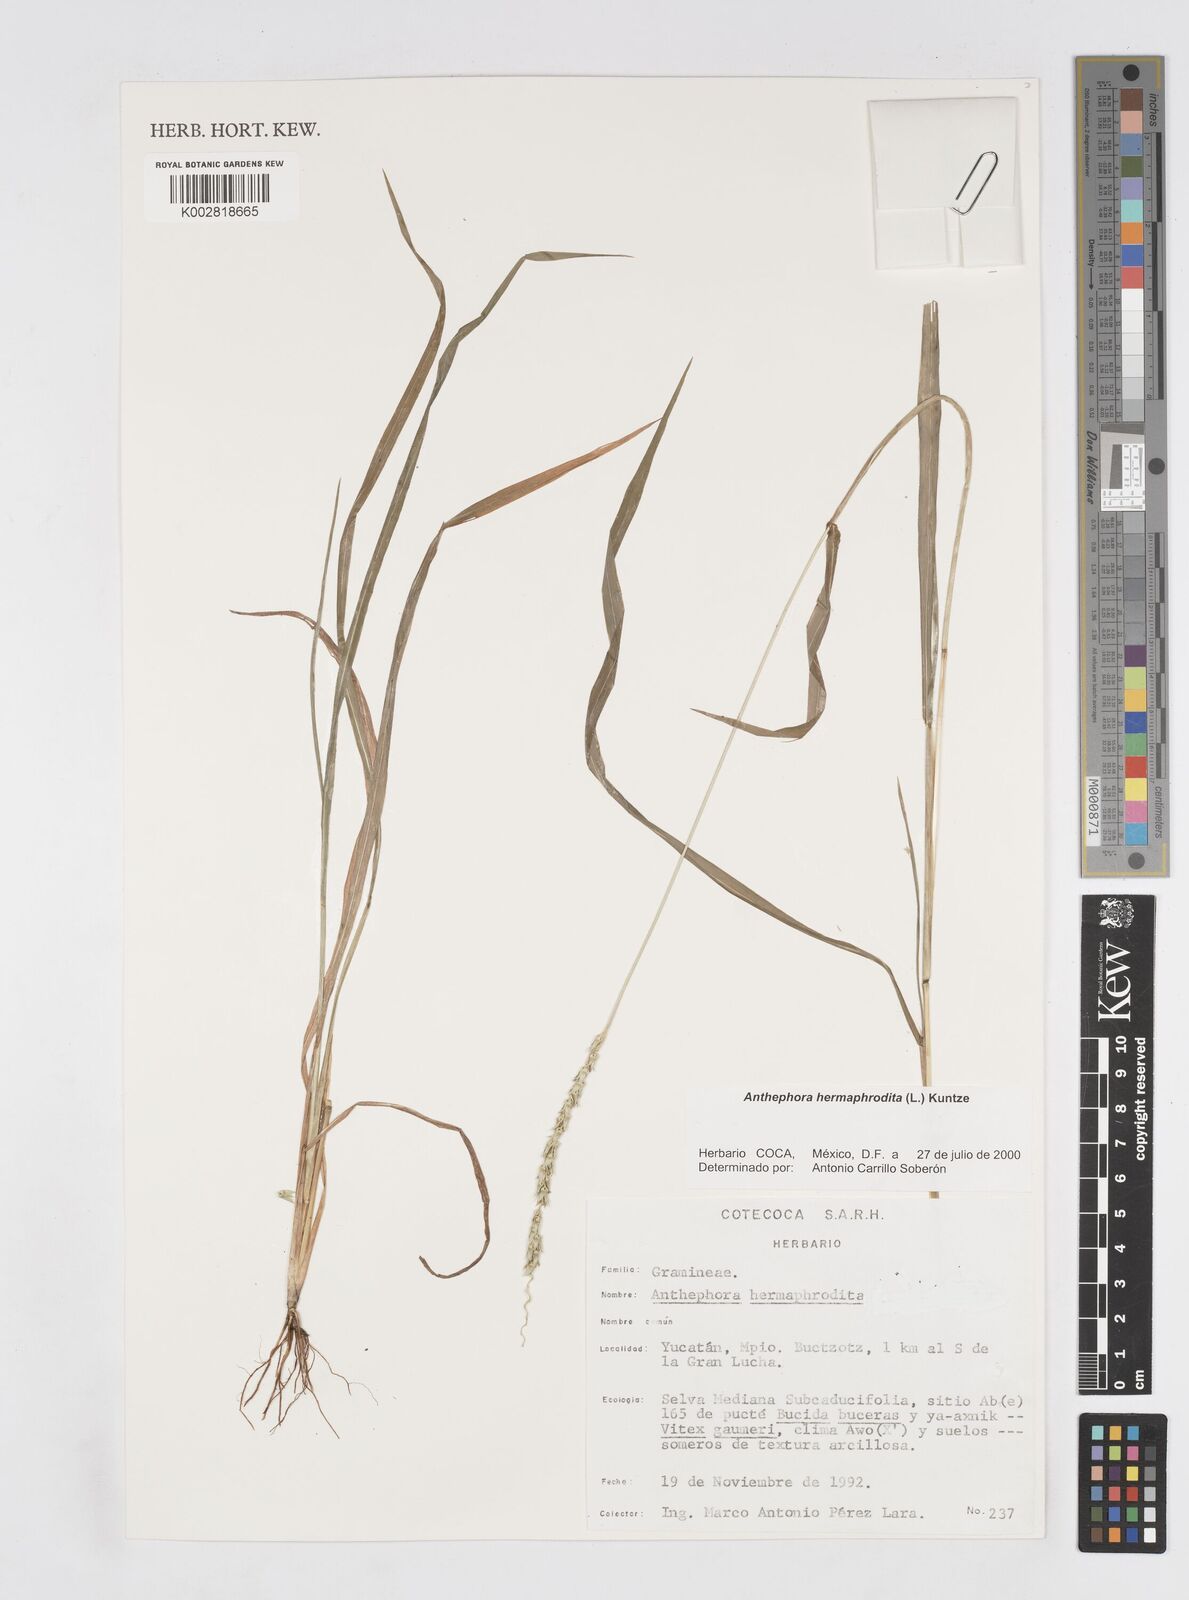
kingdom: Plantae
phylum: Tracheophyta
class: Liliopsida
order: Poales
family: Poaceae
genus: Anthephora
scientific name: Anthephora hermaphrodita
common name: Oldfield grass
